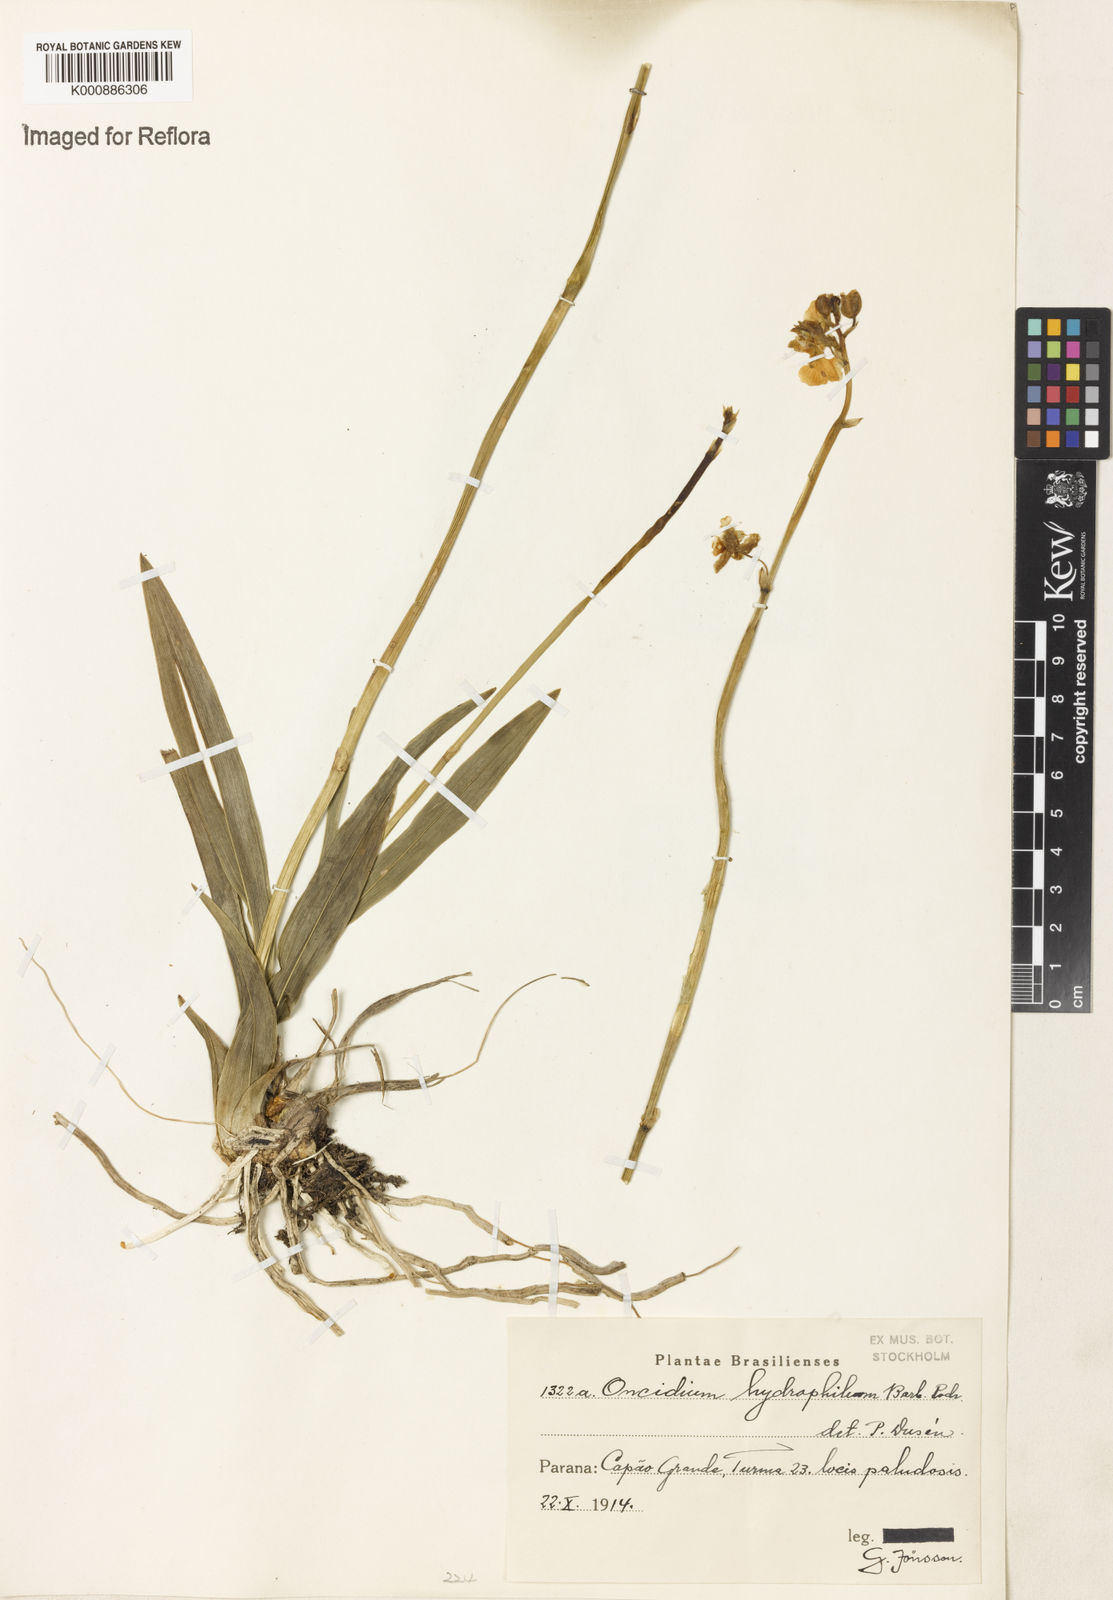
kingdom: Plantae
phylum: Tracheophyta
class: Liliopsida
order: Asparagales
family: Orchidaceae
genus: Gomesa
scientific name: Gomesa hydrophila
